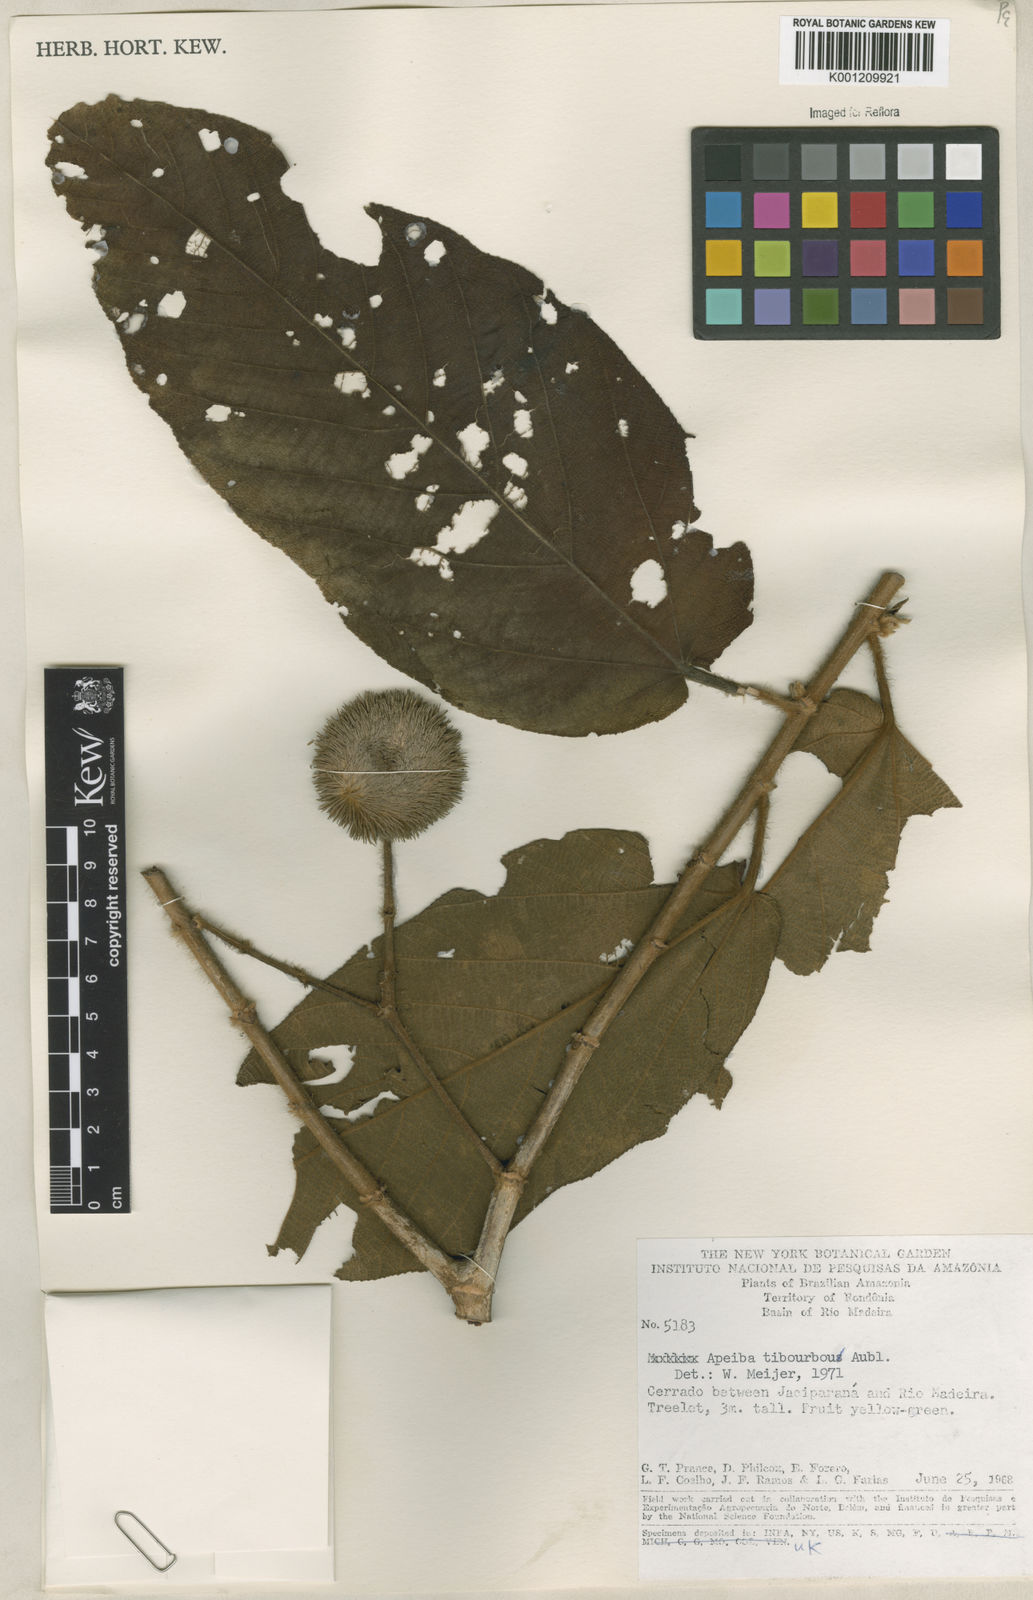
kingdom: Plantae
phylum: Tracheophyta
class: Magnoliopsida
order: Malvales
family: Malvaceae
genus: Apeiba
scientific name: Apeiba tibourbou
